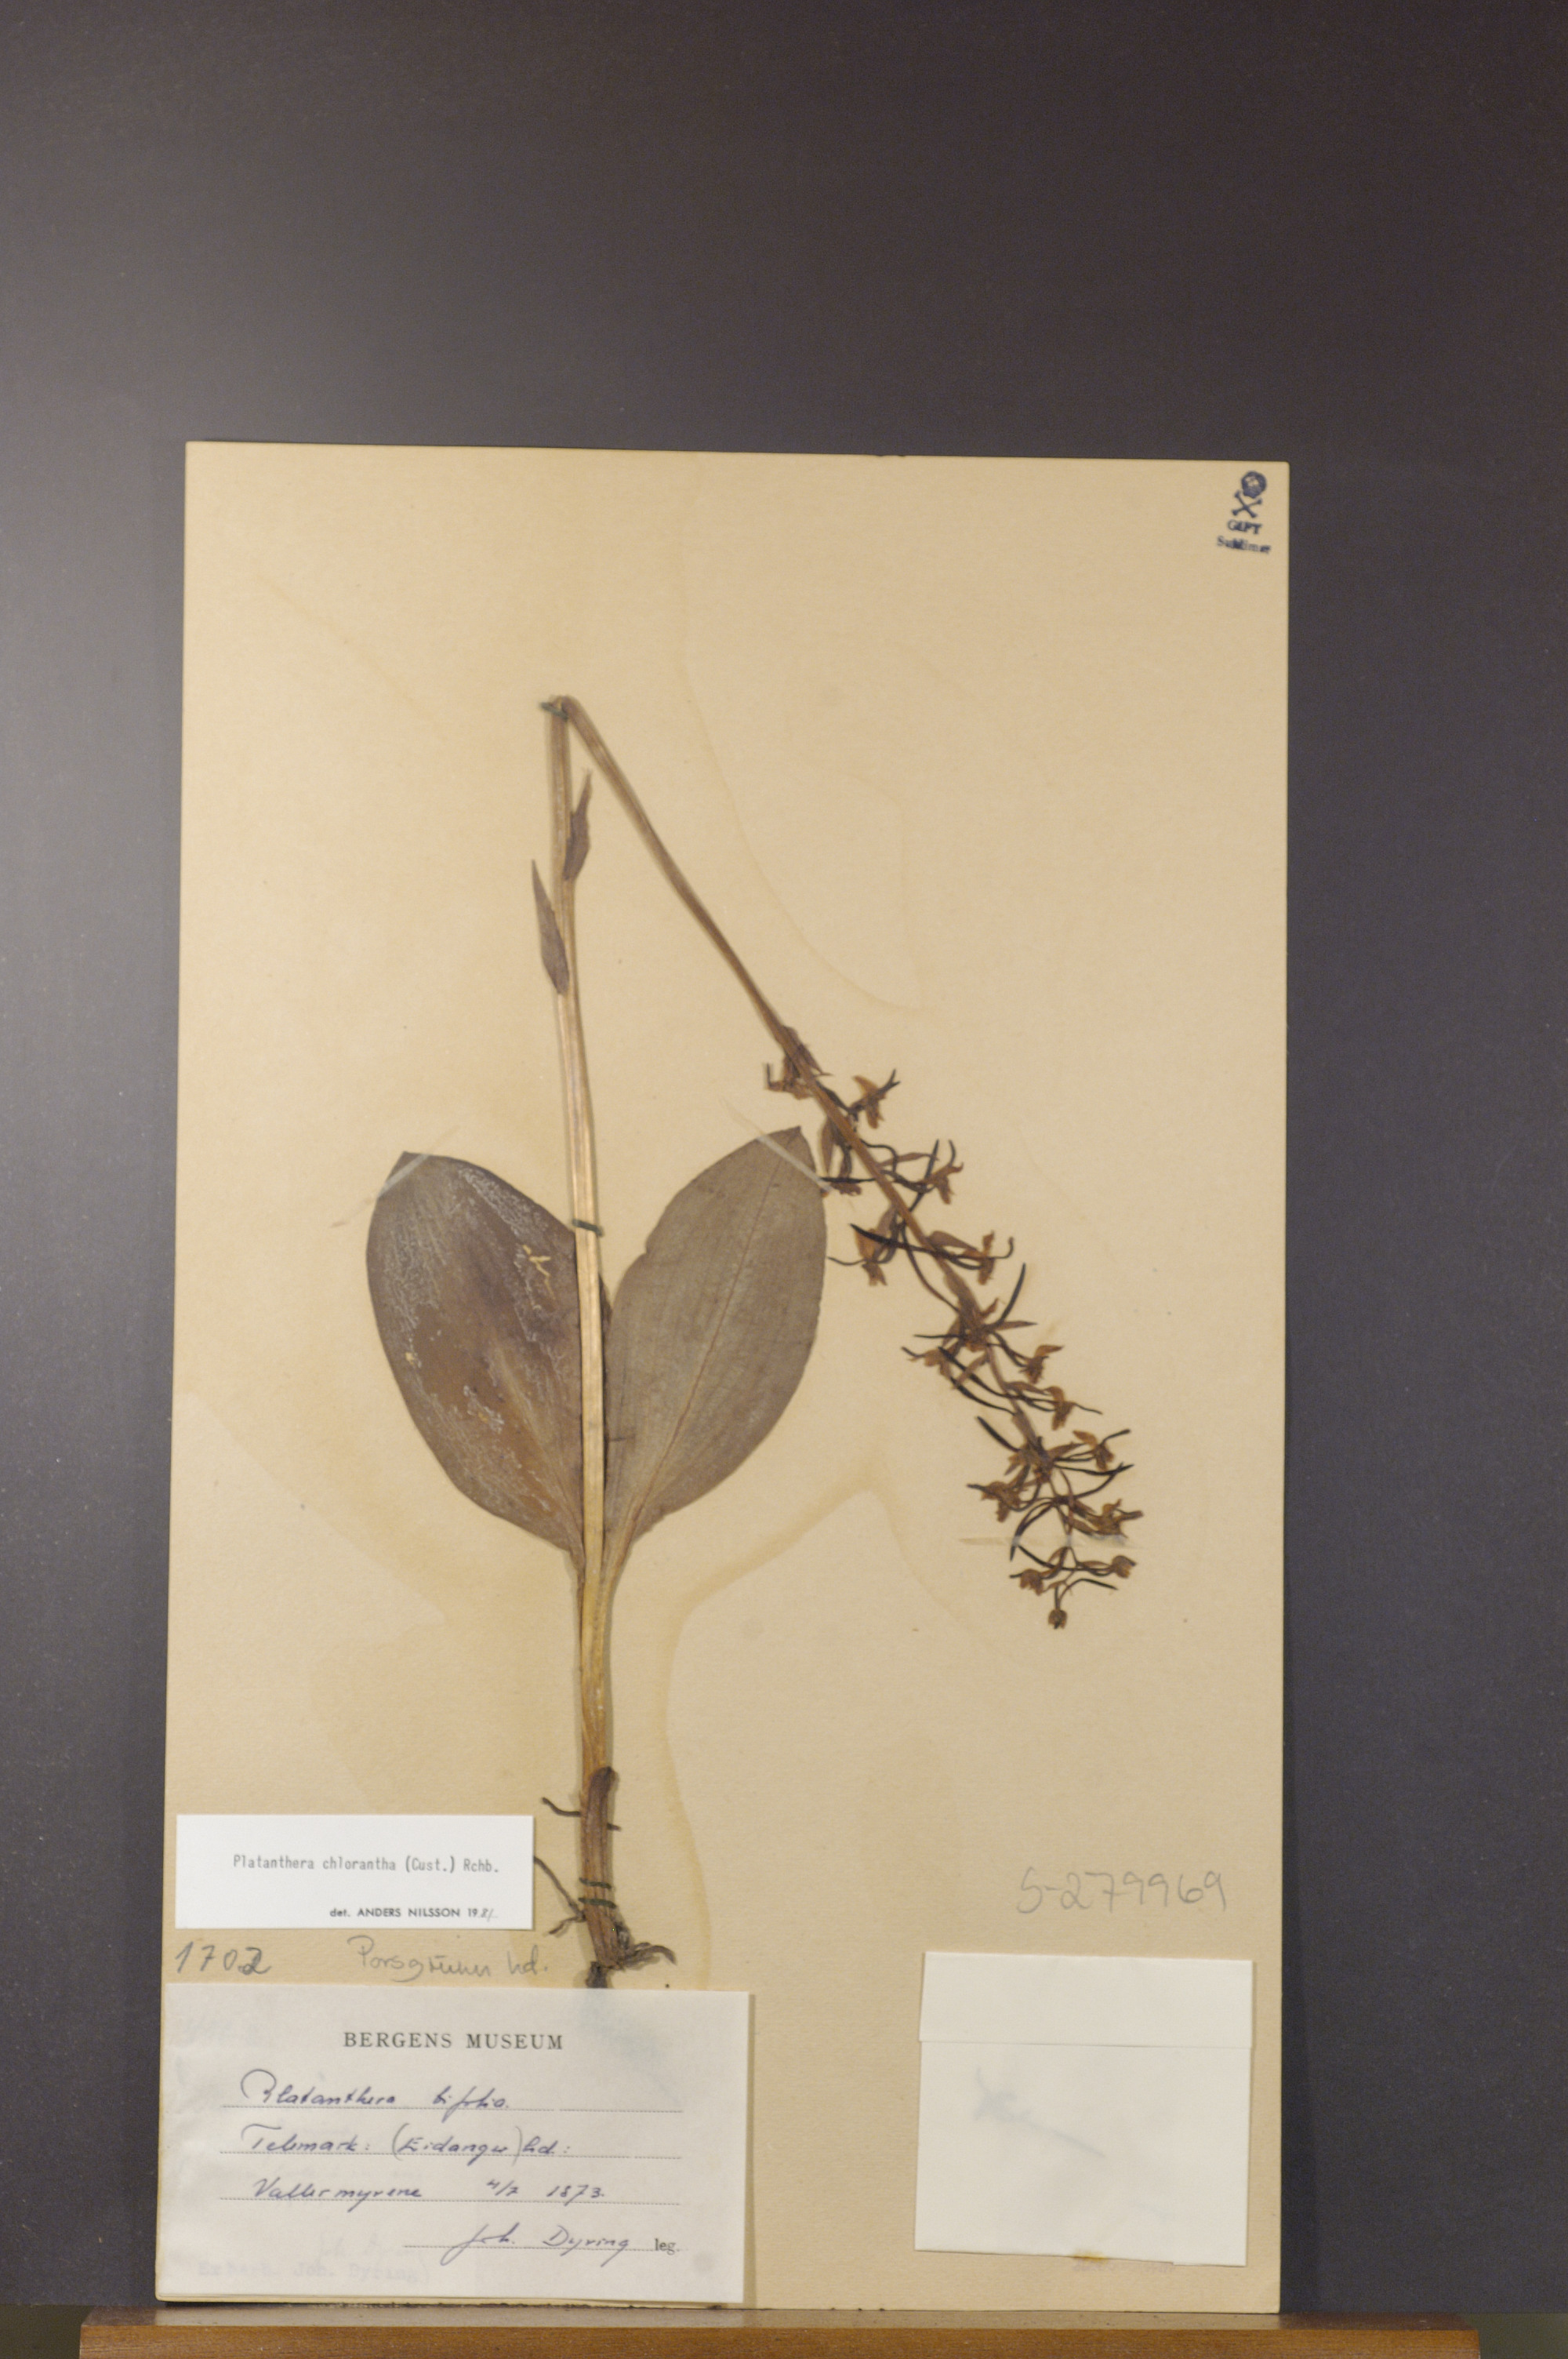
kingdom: Plantae
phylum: Tracheophyta
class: Liliopsida
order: Asparagales
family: Orchidaceae
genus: Platanthera
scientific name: Platanthera chlorantha
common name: Greater butterfly-orchid
